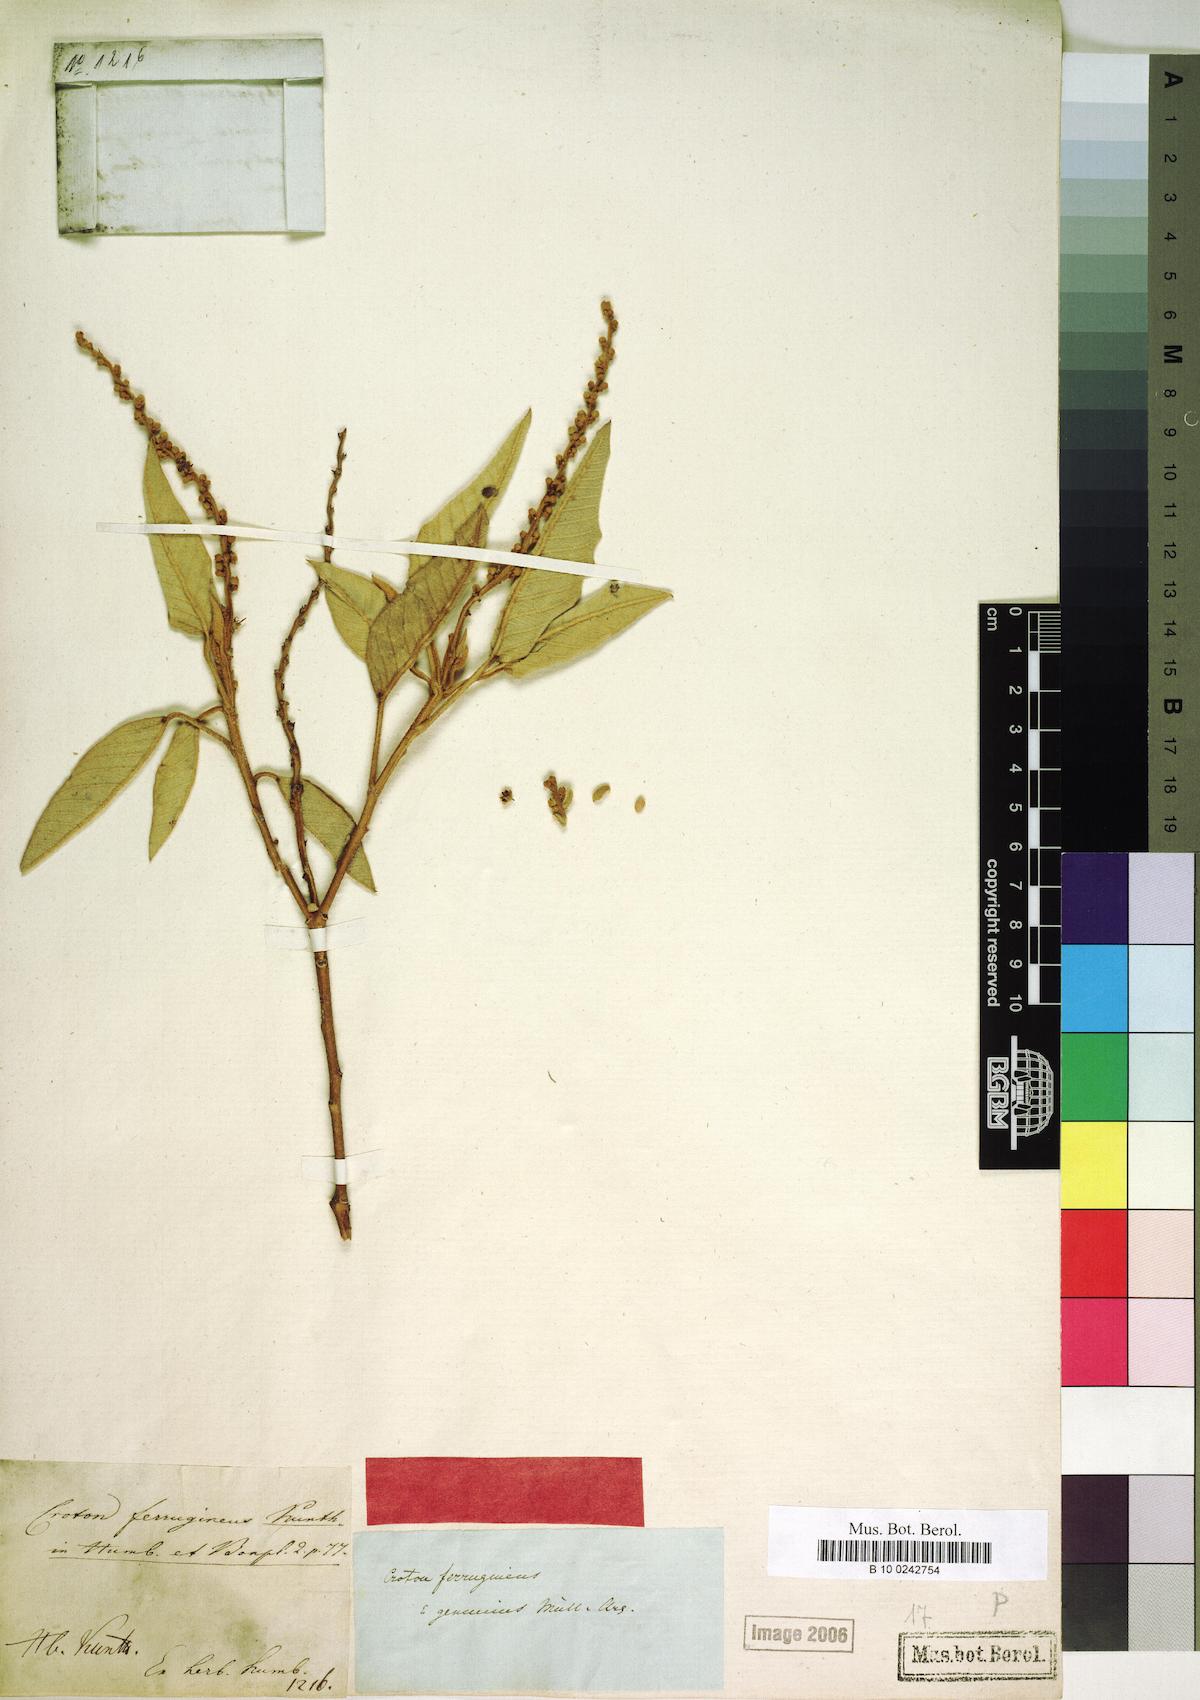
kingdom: Plantae
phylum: Tracheophyta
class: Magnoliopsida
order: Malpighiales
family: Euphorbiaceae
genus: Croton
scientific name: Croton ferrugineus
